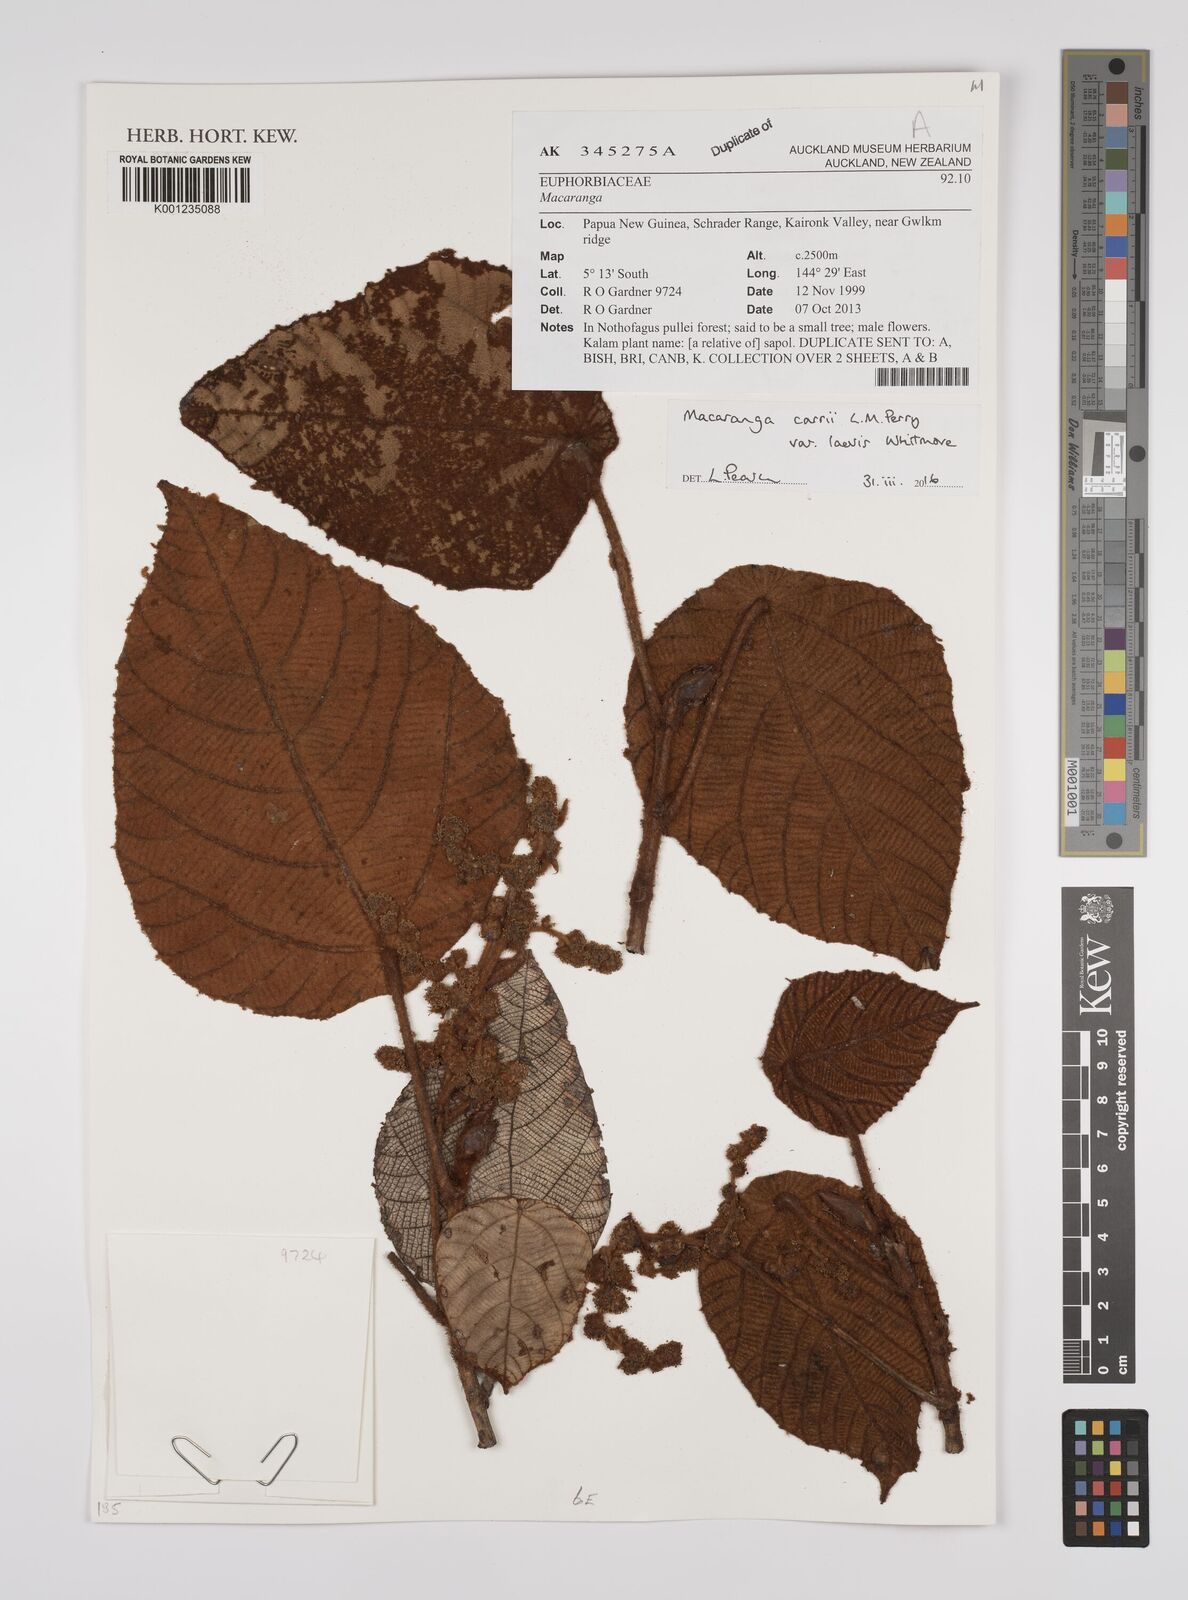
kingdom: Plantae
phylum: Tracheophyta
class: Magnoliopsida
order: Malpighiales
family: Euphorbiaceae
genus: Macaranga
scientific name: Macaranga carrii
